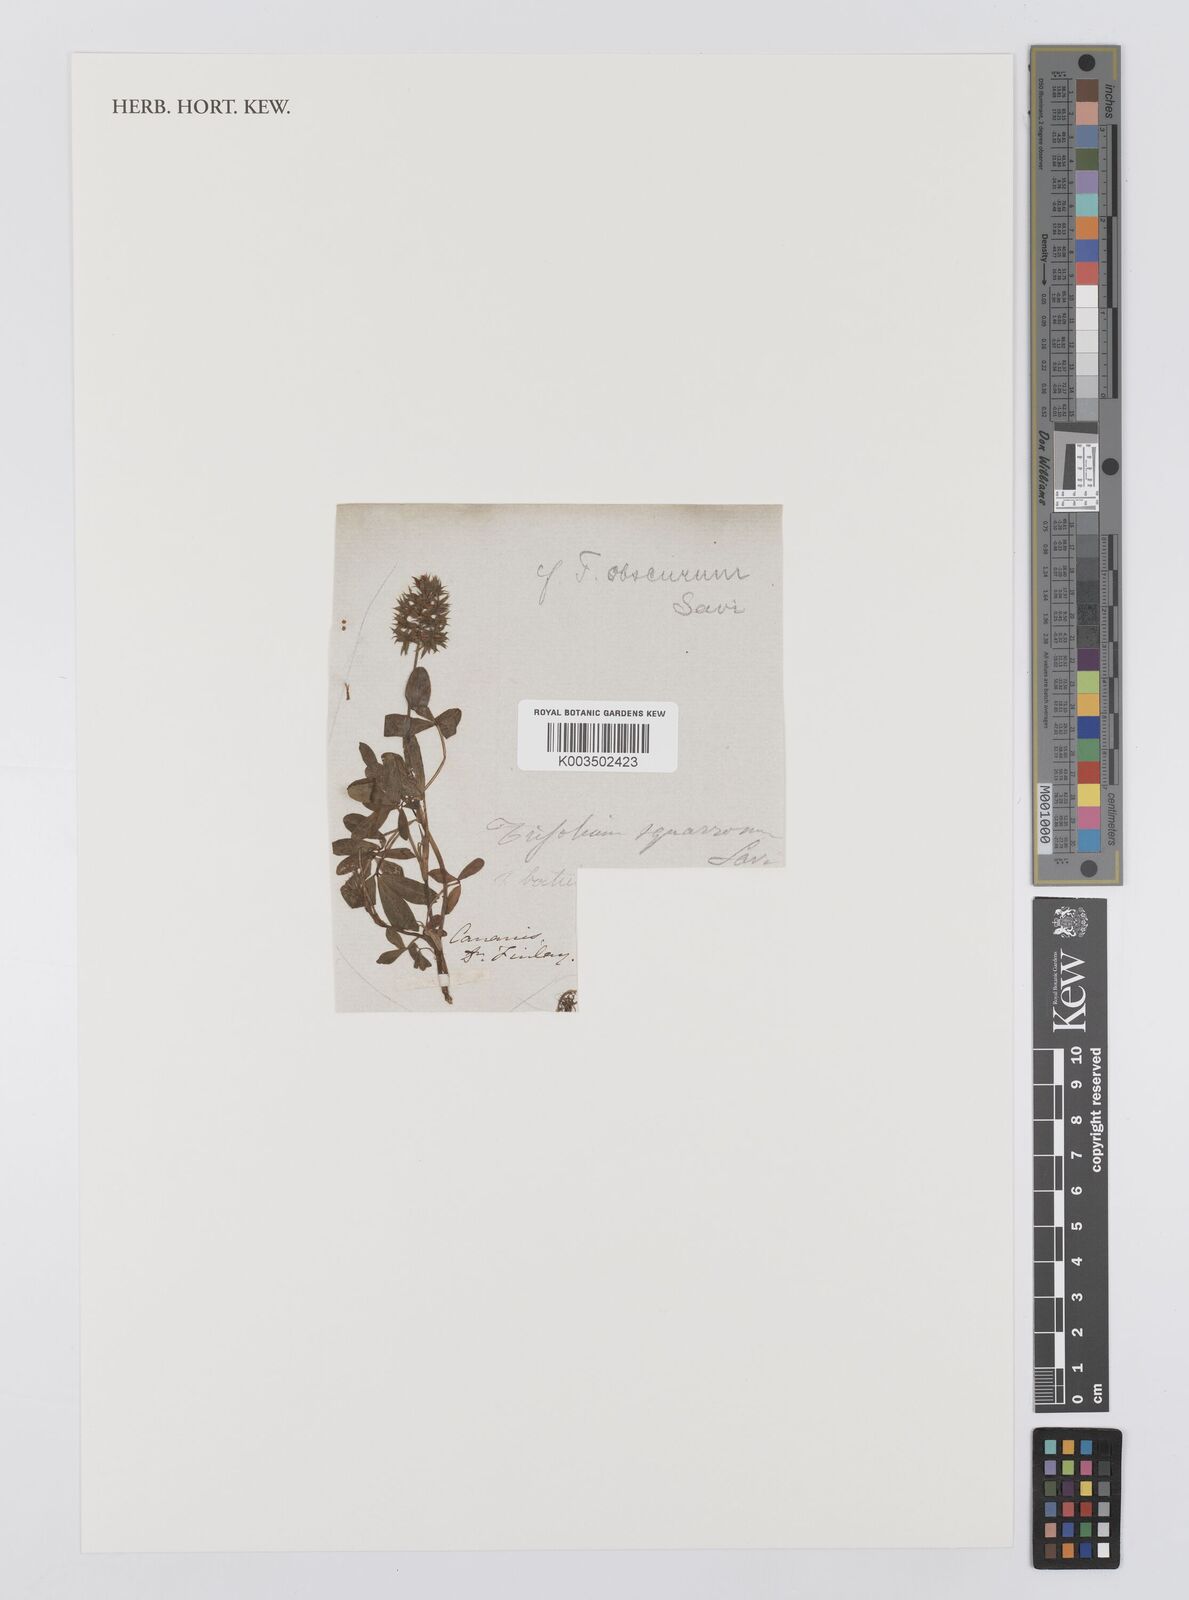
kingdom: Plantae
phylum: Tracheophyta
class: Magnoliopsida
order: Fabales
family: Fabaceae
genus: Trifolium
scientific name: Trifolium
